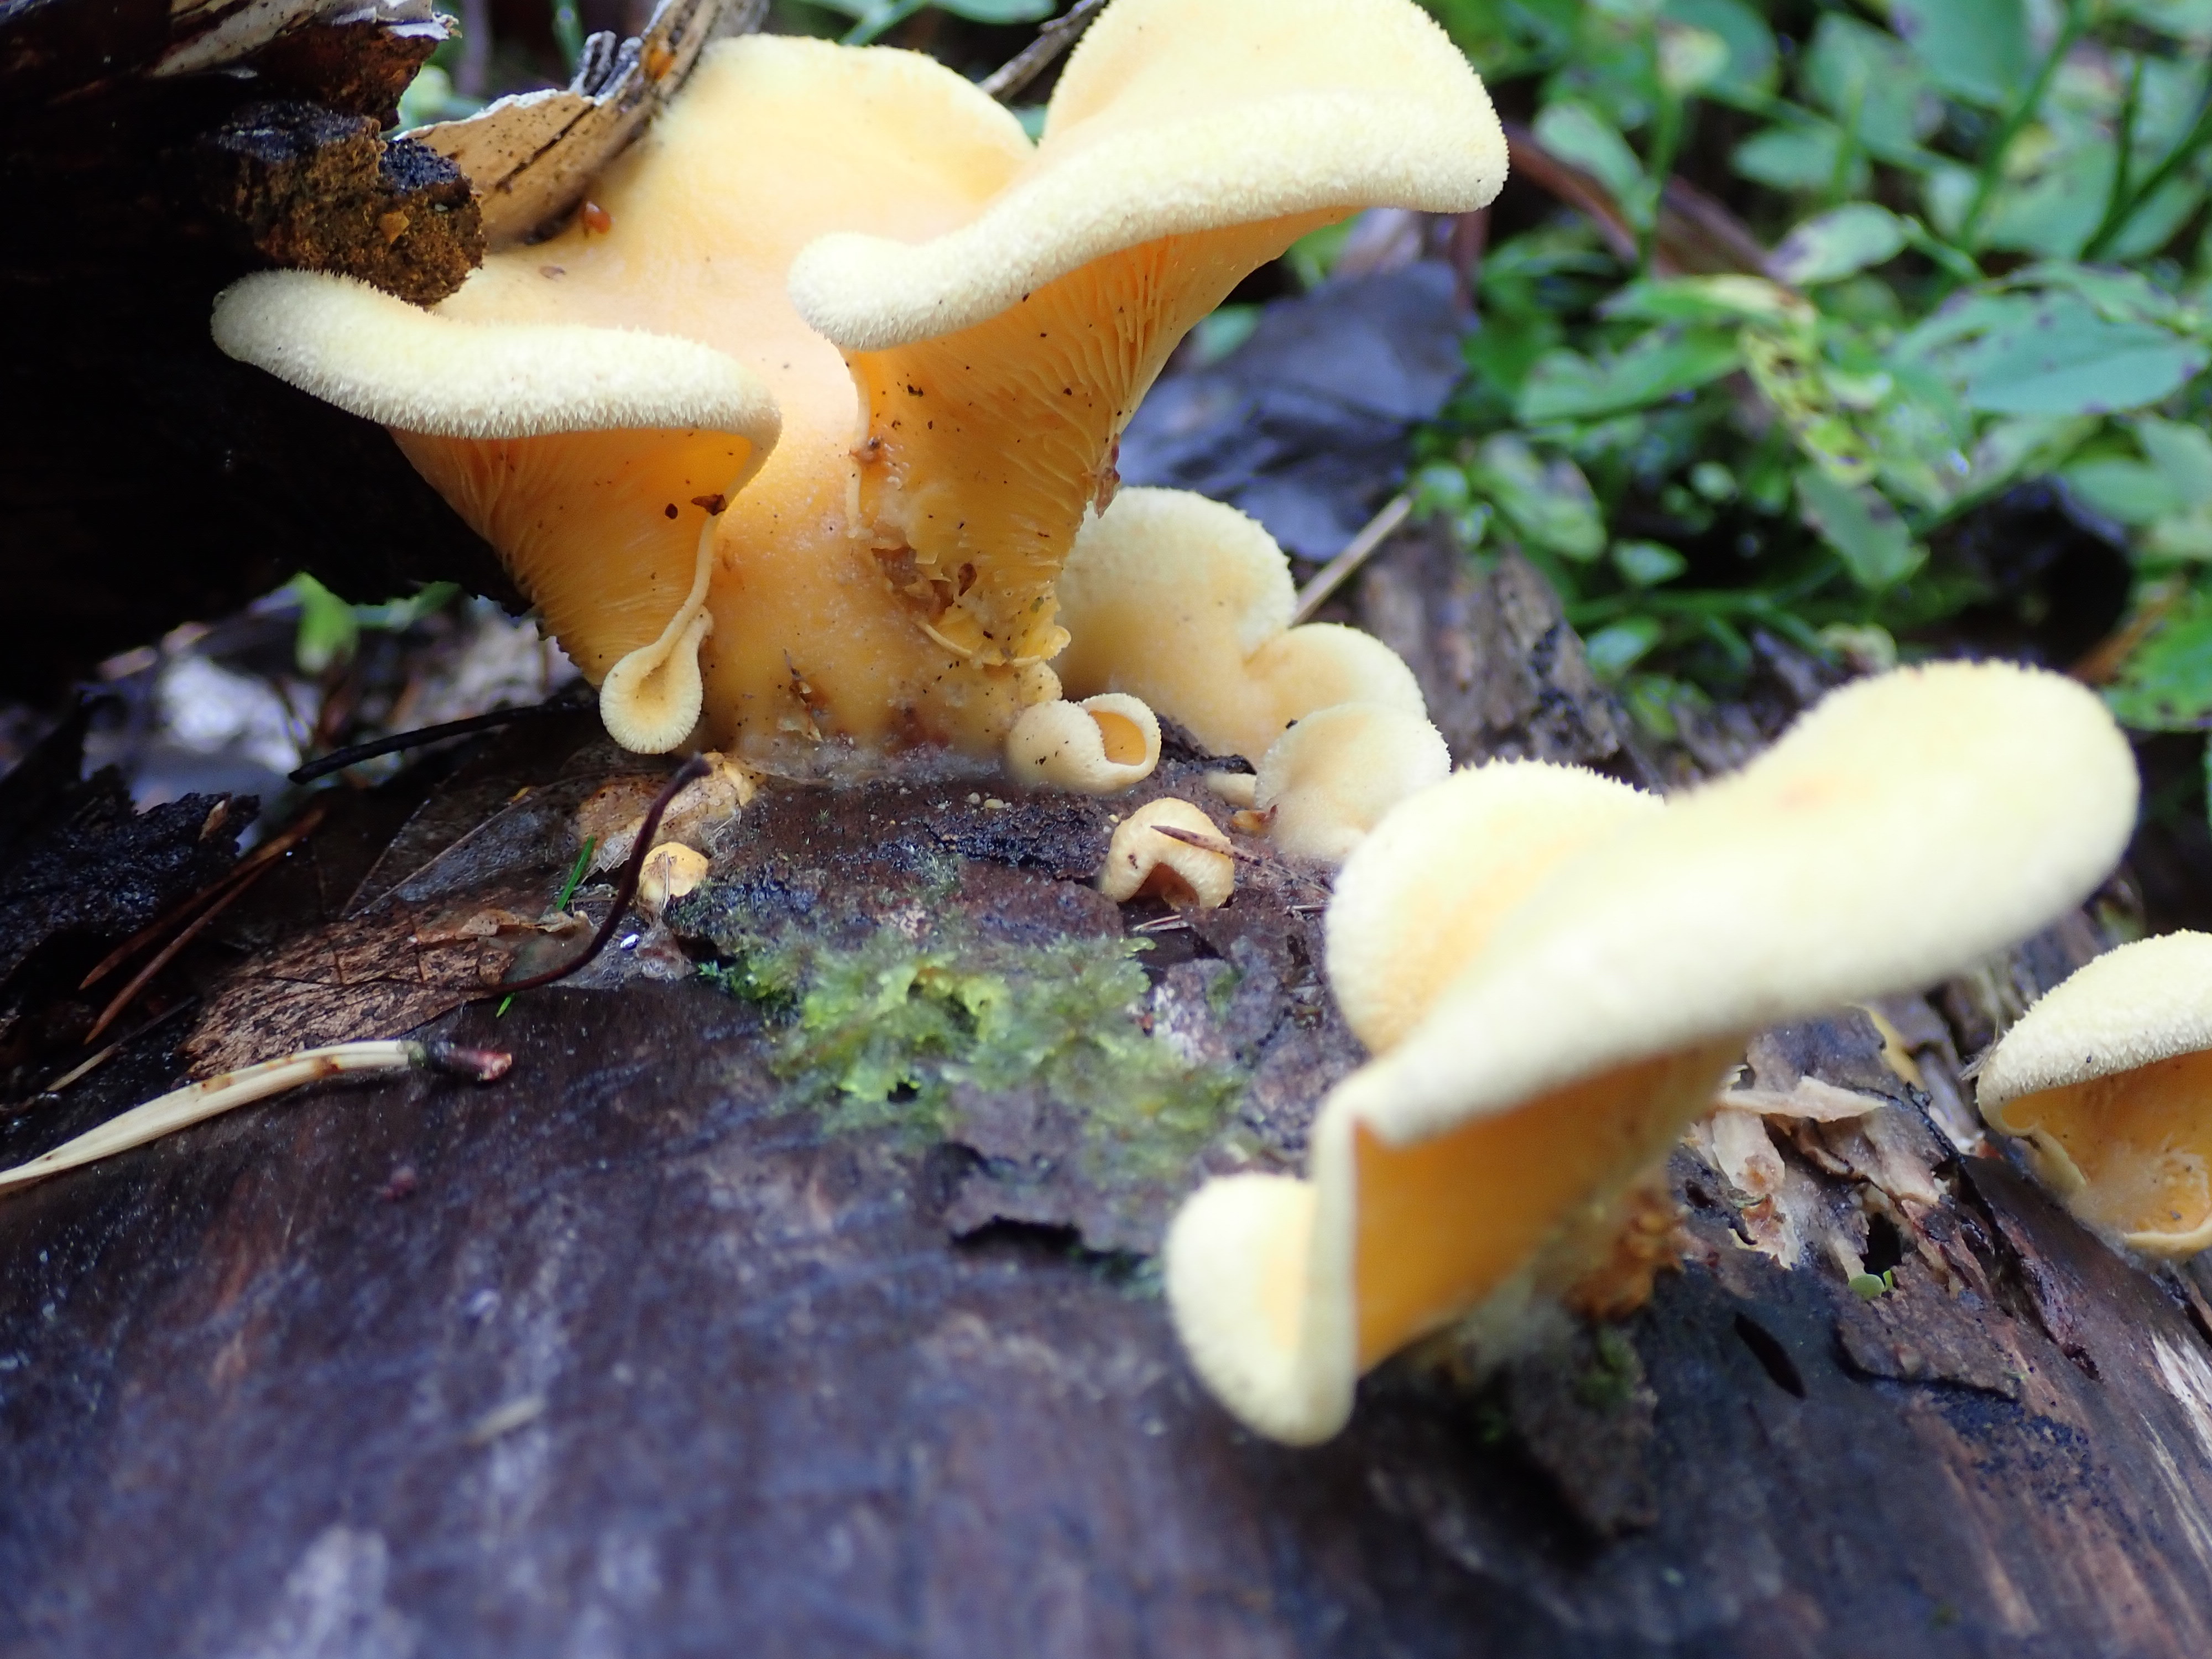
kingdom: Fungi
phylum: Basidiomycota
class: Agaricomycetes
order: Agaricales
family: Phyllotopsidaceae
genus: Phyllotopsis
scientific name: Phyllotopsis nidulans
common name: Orange mock oyster
